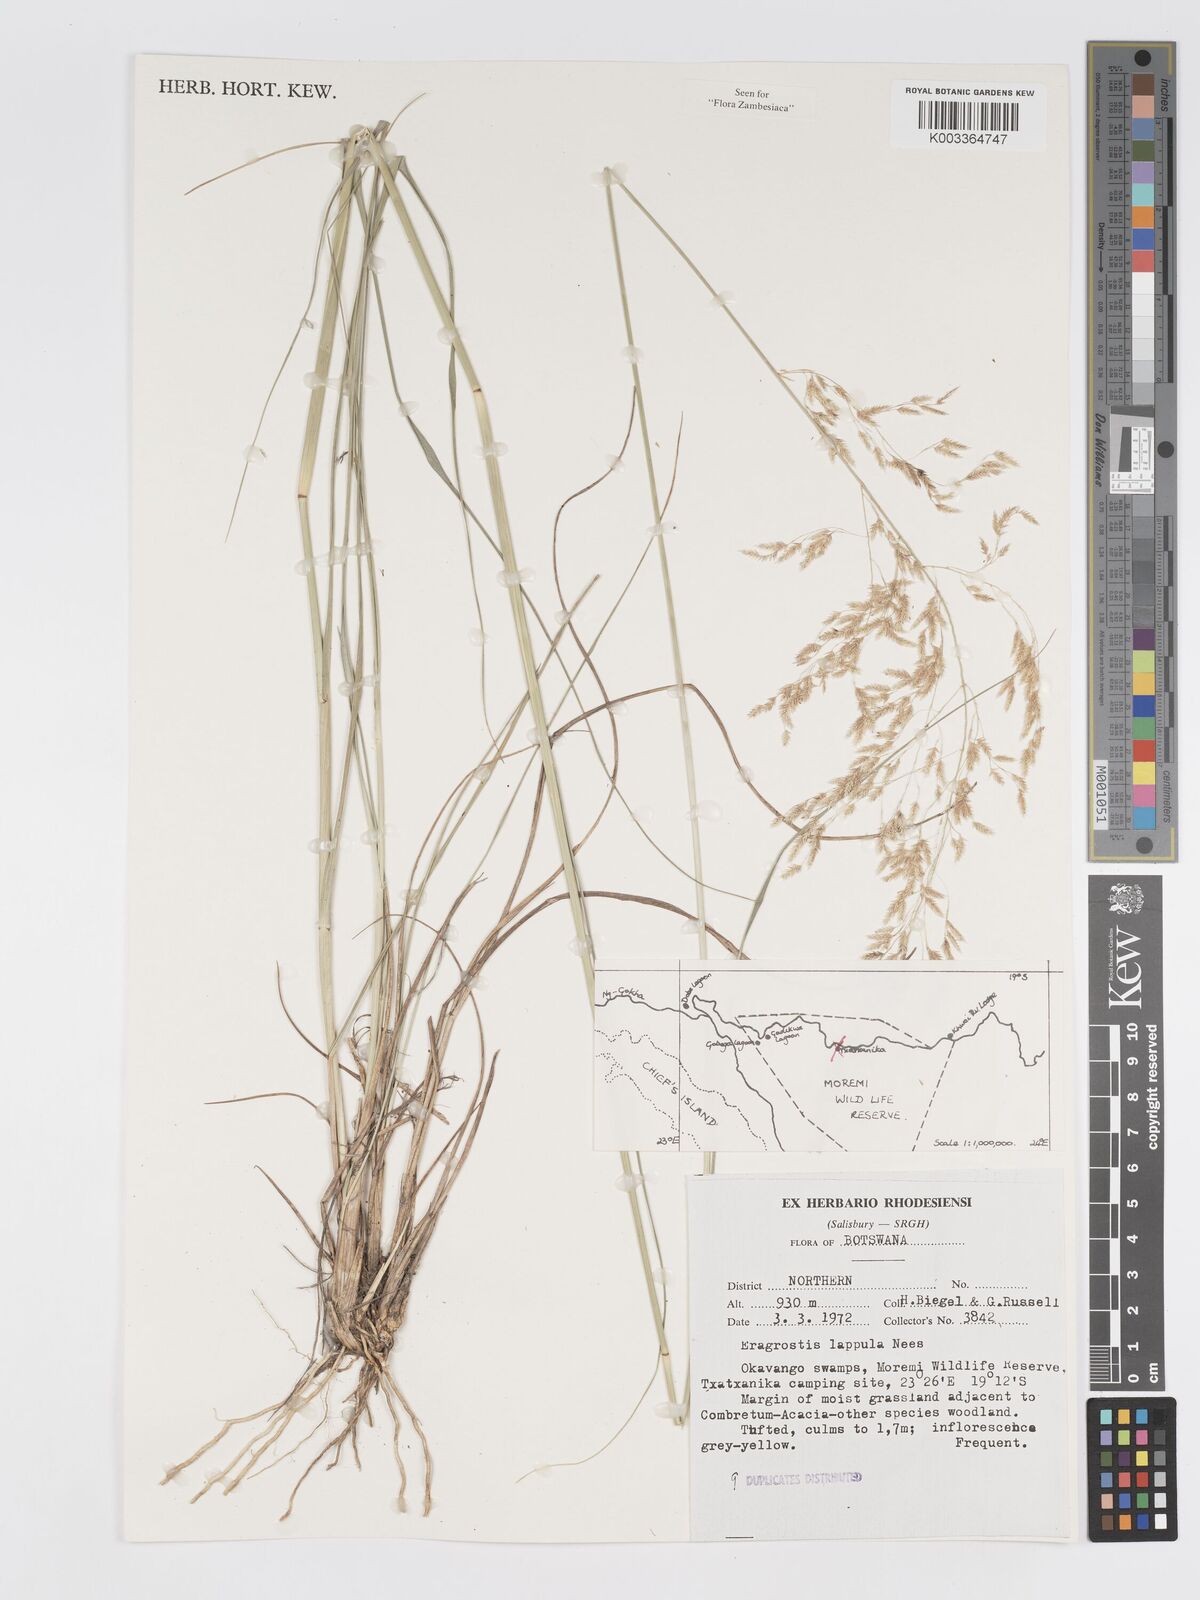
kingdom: Plantae
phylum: Tracheophyta
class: Liliopsida
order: Poales
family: Poaceae
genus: Eragrostis
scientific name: Eragrostis lappula
